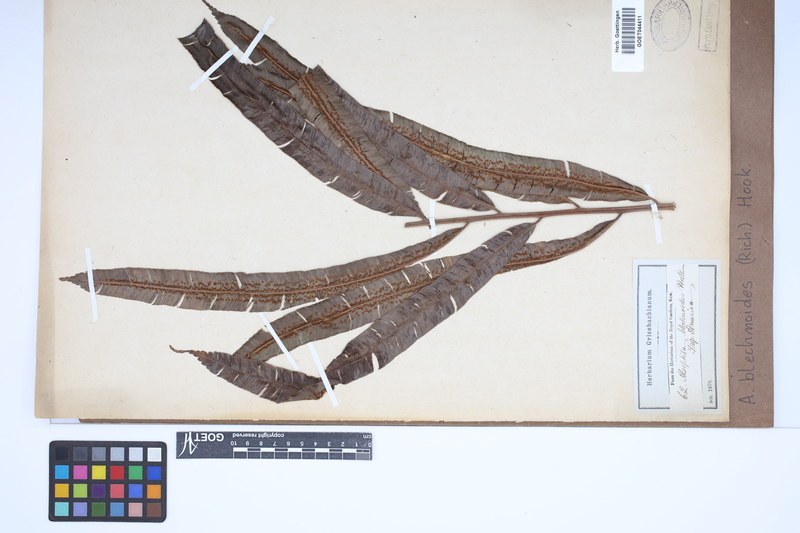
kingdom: Plantae
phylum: Tracheophyta
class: Polypodiopsida
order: Cyatheales
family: Metaxyaceae
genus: Metaxya
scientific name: Metaxya rostrata
